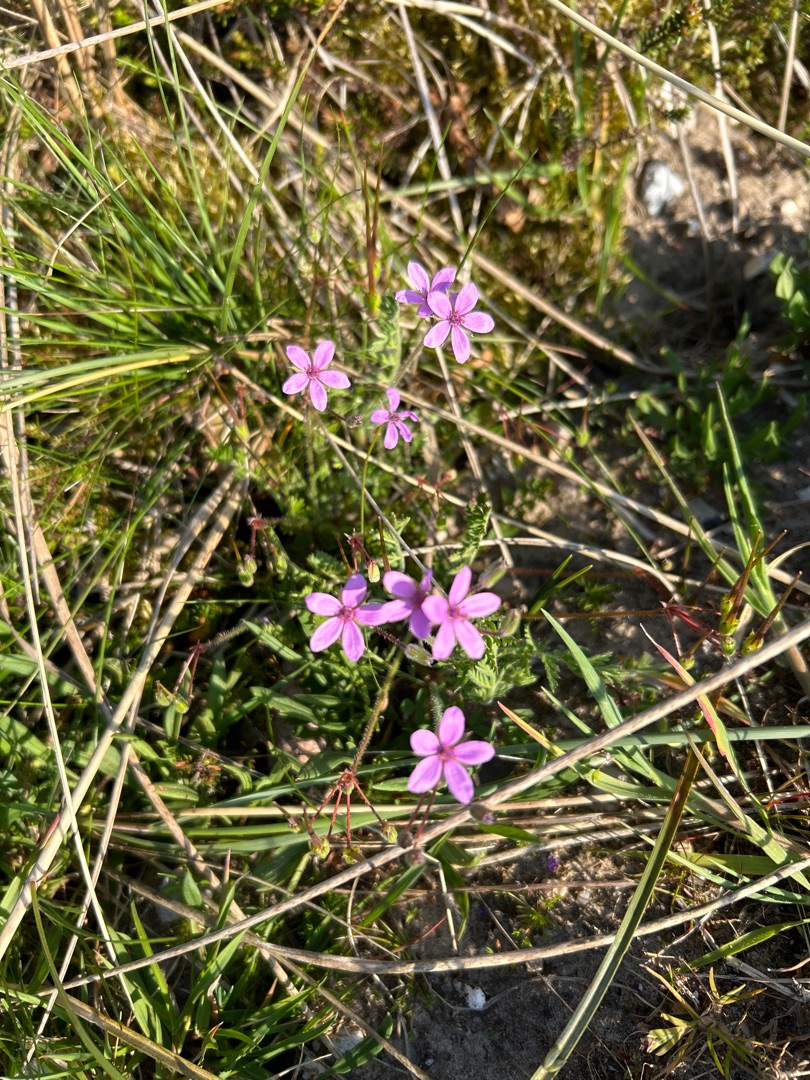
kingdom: Plantae
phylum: Tracheophyta
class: Magnoliopsida
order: Geraniales
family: Geraniaceae
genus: Erodium
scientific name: Erodium cicutarium
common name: Hejrenæb
